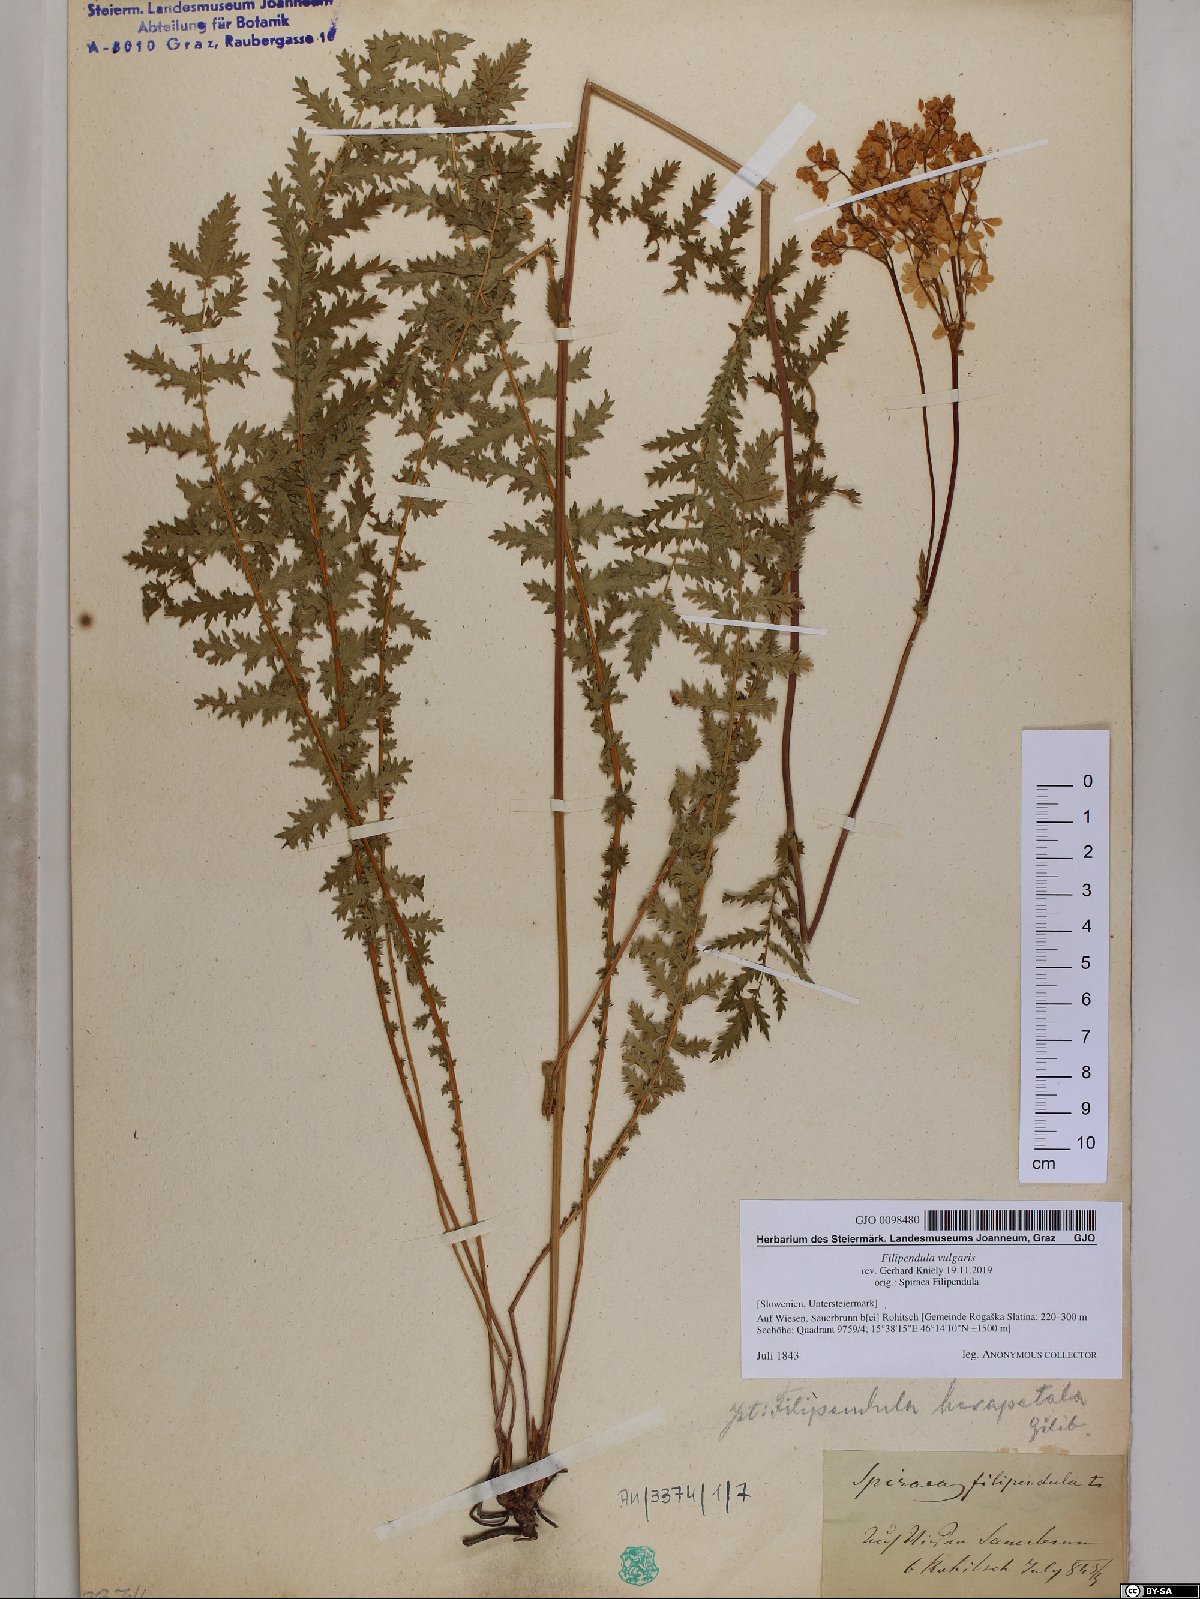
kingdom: Plantae
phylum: Tracheophyta
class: Magnoliopsida
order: Rosales
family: Rosaceae
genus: Filipendula
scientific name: Filipendula vulgaris
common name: Dropwort
